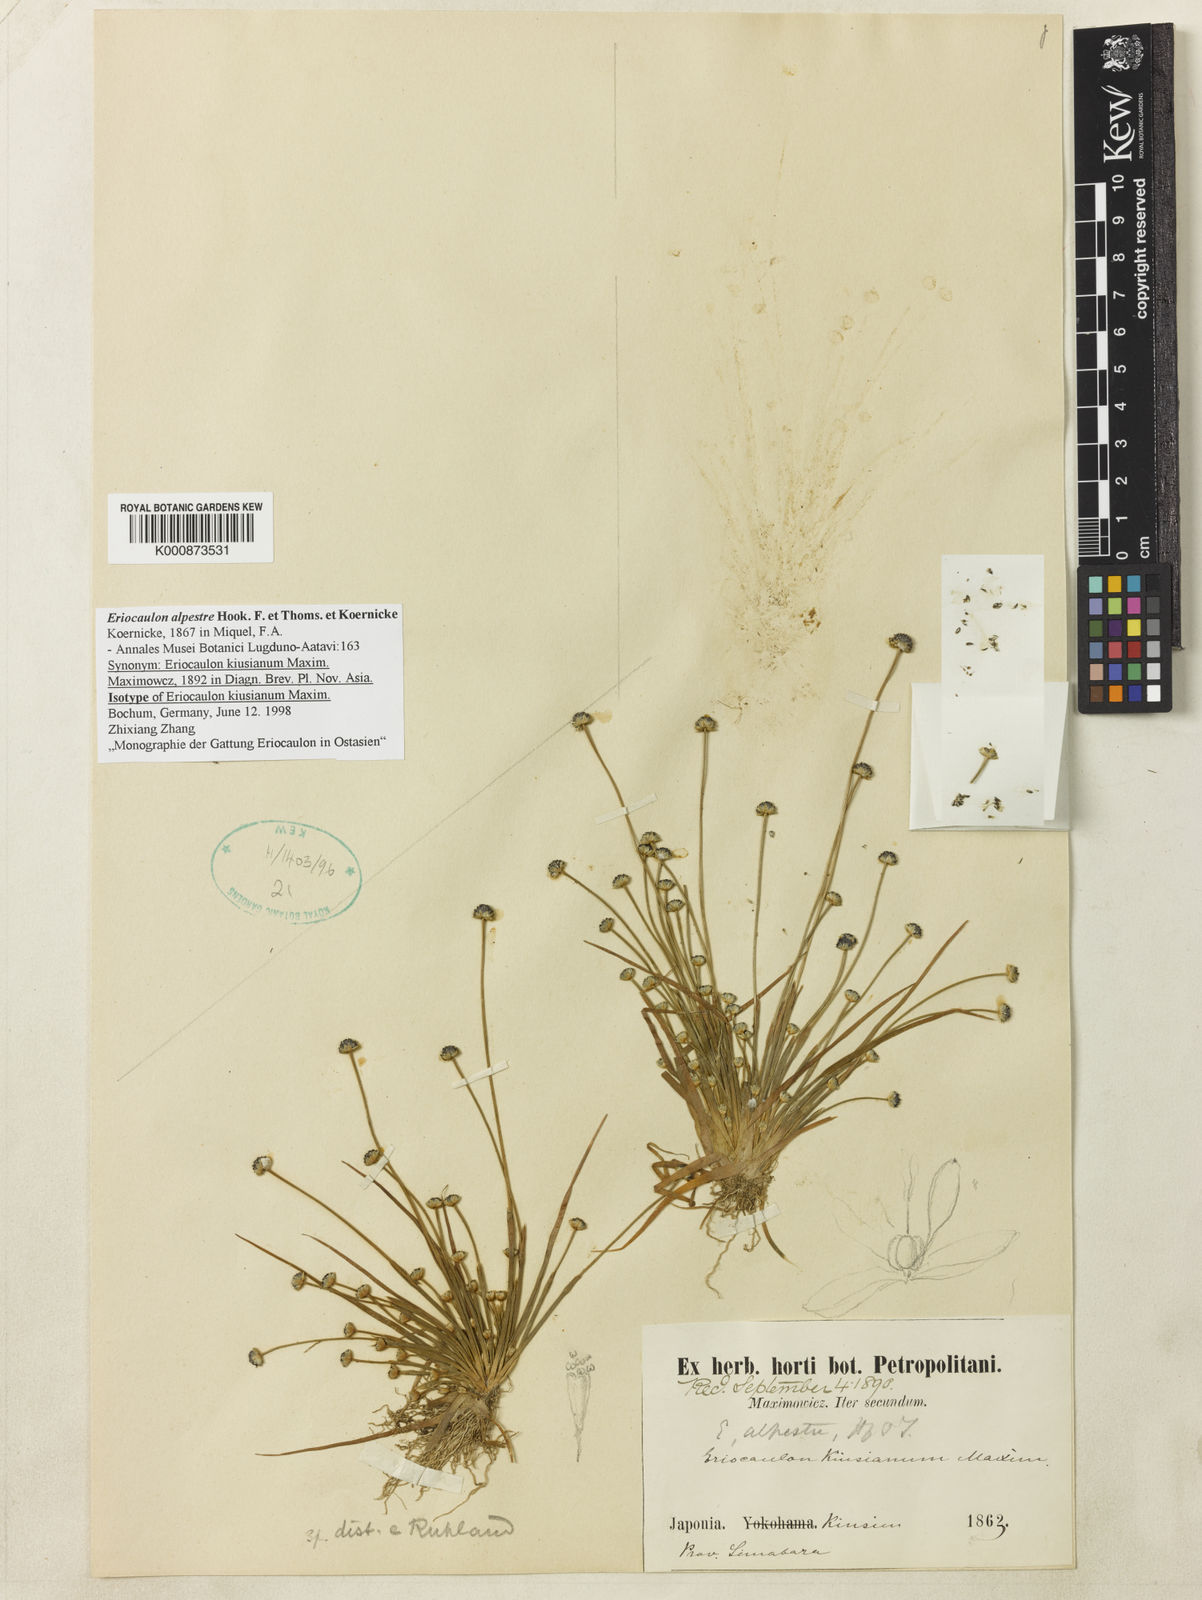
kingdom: Plantae
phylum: Tracheophyta
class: Liliopsida
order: Poales
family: Eriocaulaceae
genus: Eriocaulon
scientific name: Eriocaulon
